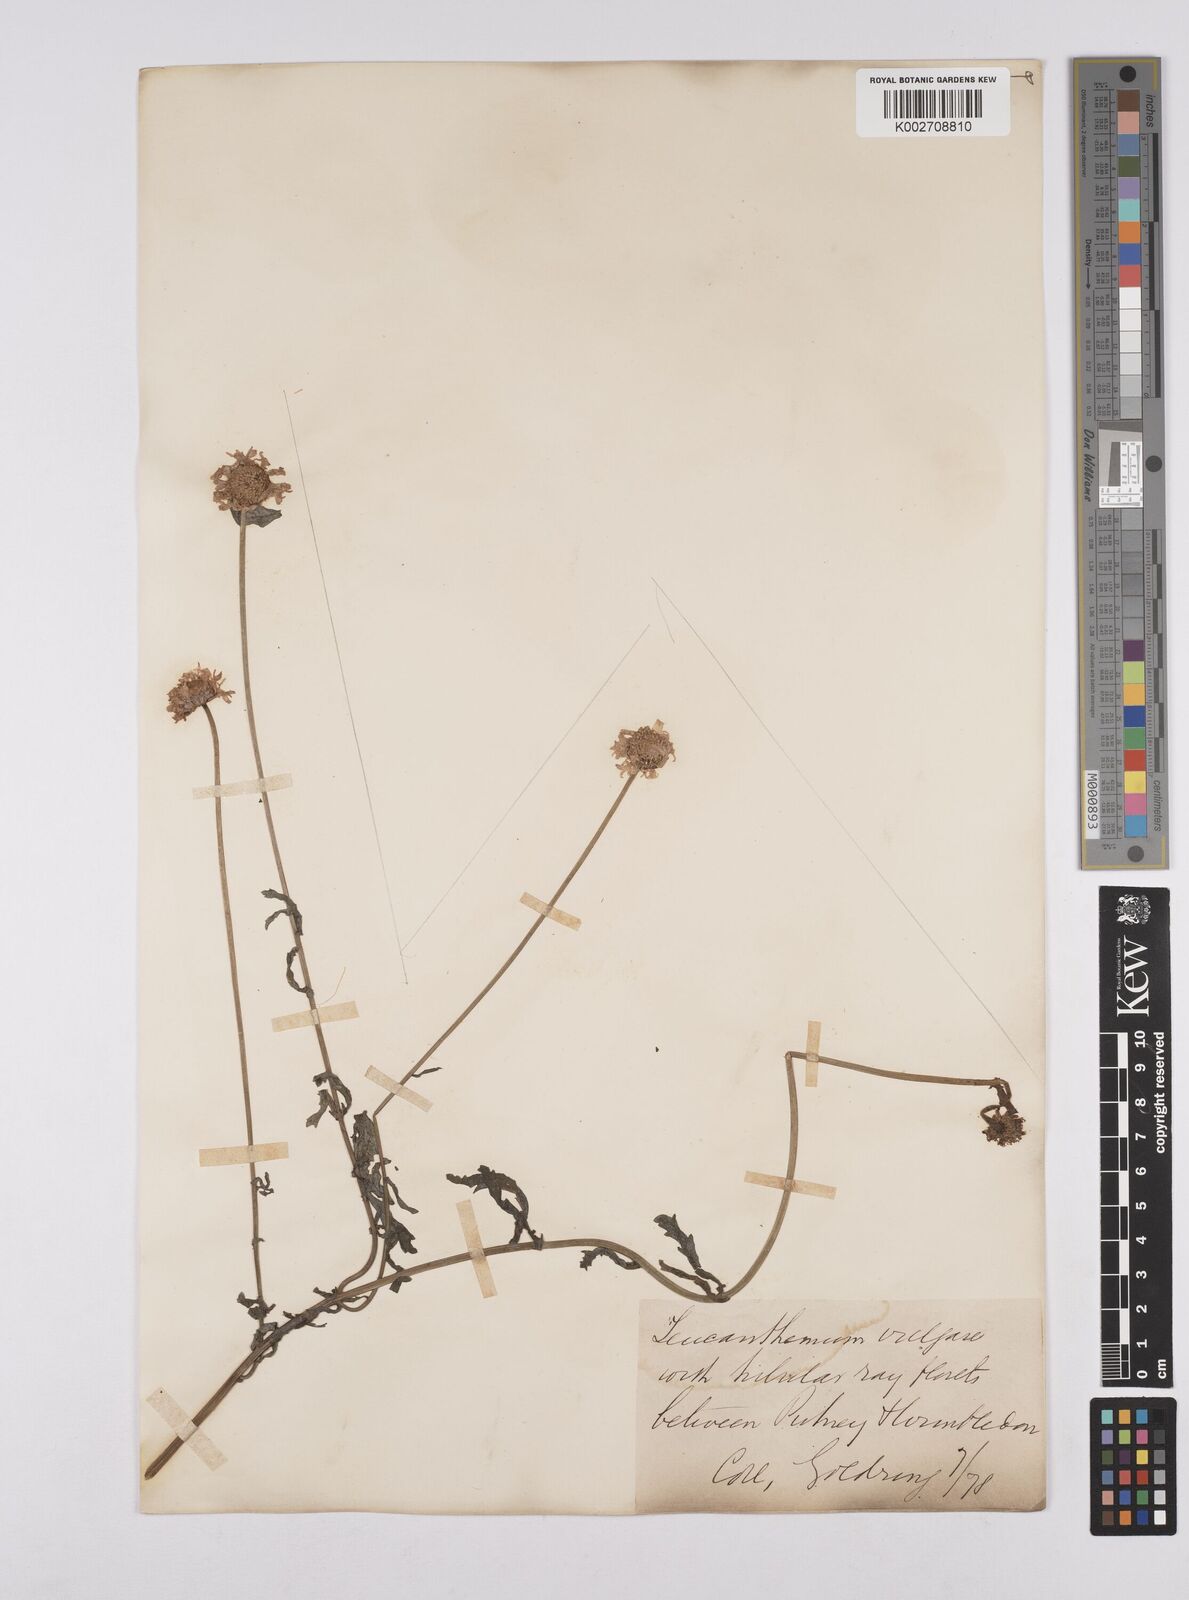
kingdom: Plantae
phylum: Tracheophyta
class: Magnoliopsida
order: Asterales
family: Asteraceae
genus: Leucanthemum
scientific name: Leucanthemum vulgare
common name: Oxeye daisy
